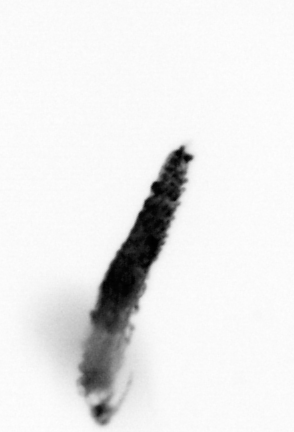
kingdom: Animalia
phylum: Annelida
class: Polychaeta
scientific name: Polychaeta
